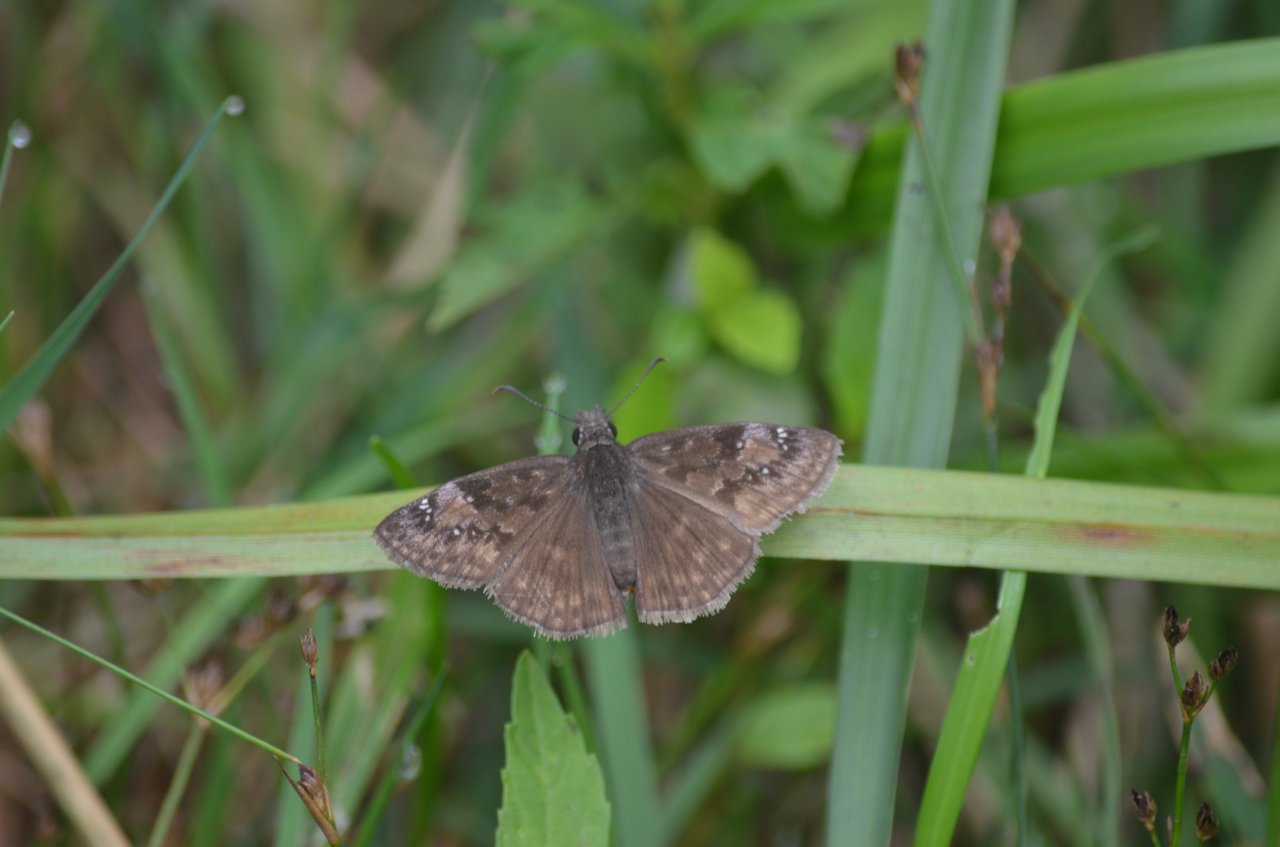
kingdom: Animalia
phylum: Arthropoda
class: Insecta
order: Lepidoptera
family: Hesperiidae
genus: Gesta
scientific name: Gesta
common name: Wild Indigo Duskywing
